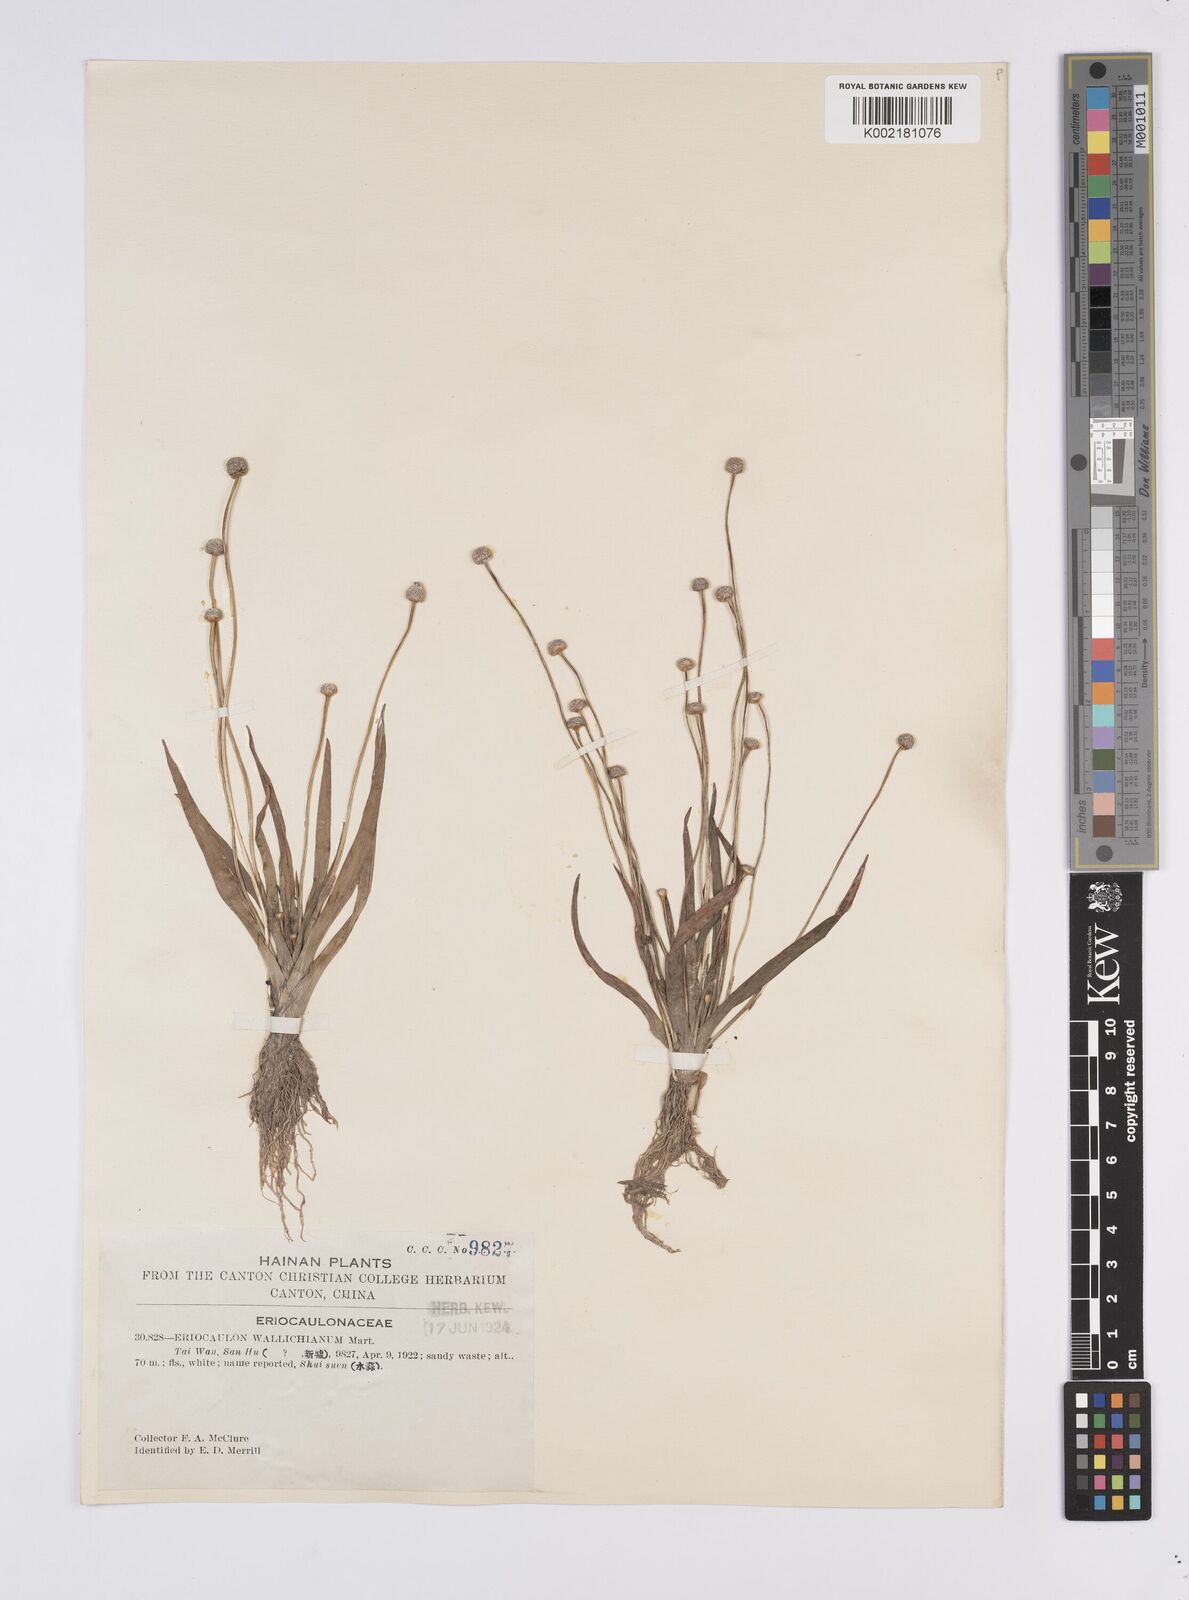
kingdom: Plantae
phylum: Tracheophyta
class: Liliopsida
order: Poales
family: Eriocaulaceae
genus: Eriocaulon
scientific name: Eriocaulon sexangulare
